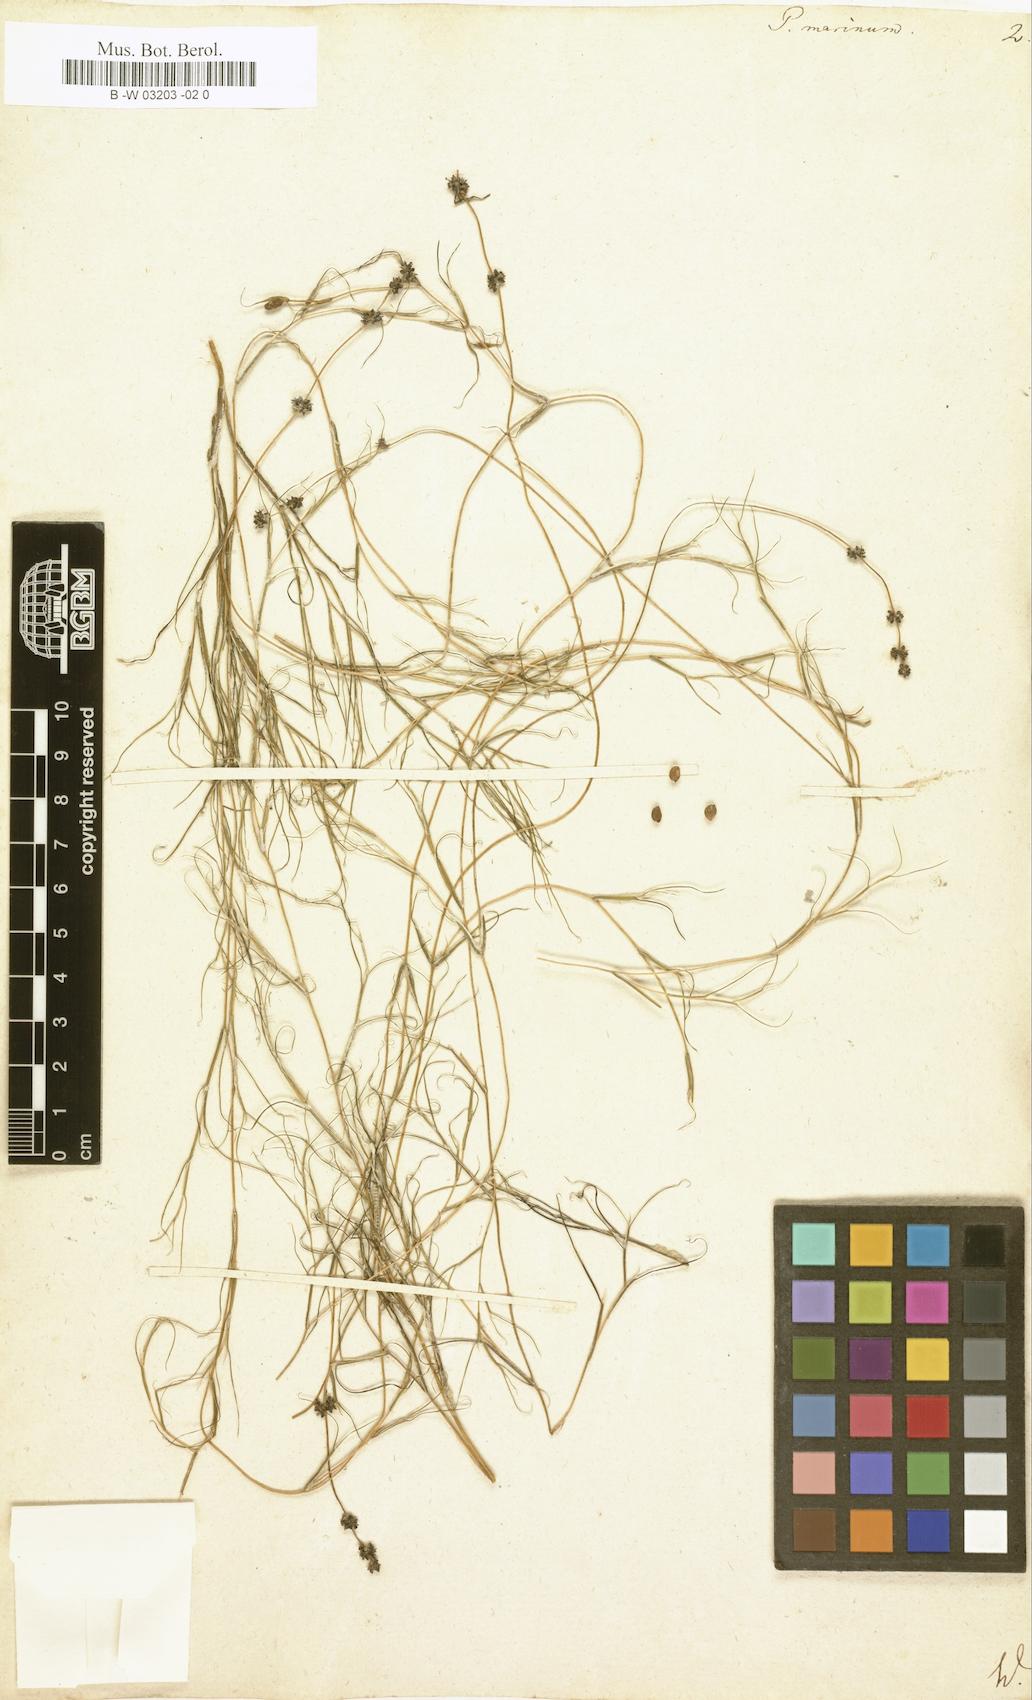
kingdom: Plantae
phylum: Tracheophyta
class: Liliopsida
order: Alismatales
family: Potamogetonaceae
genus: Potamogeton
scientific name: Potamogeton marinus
